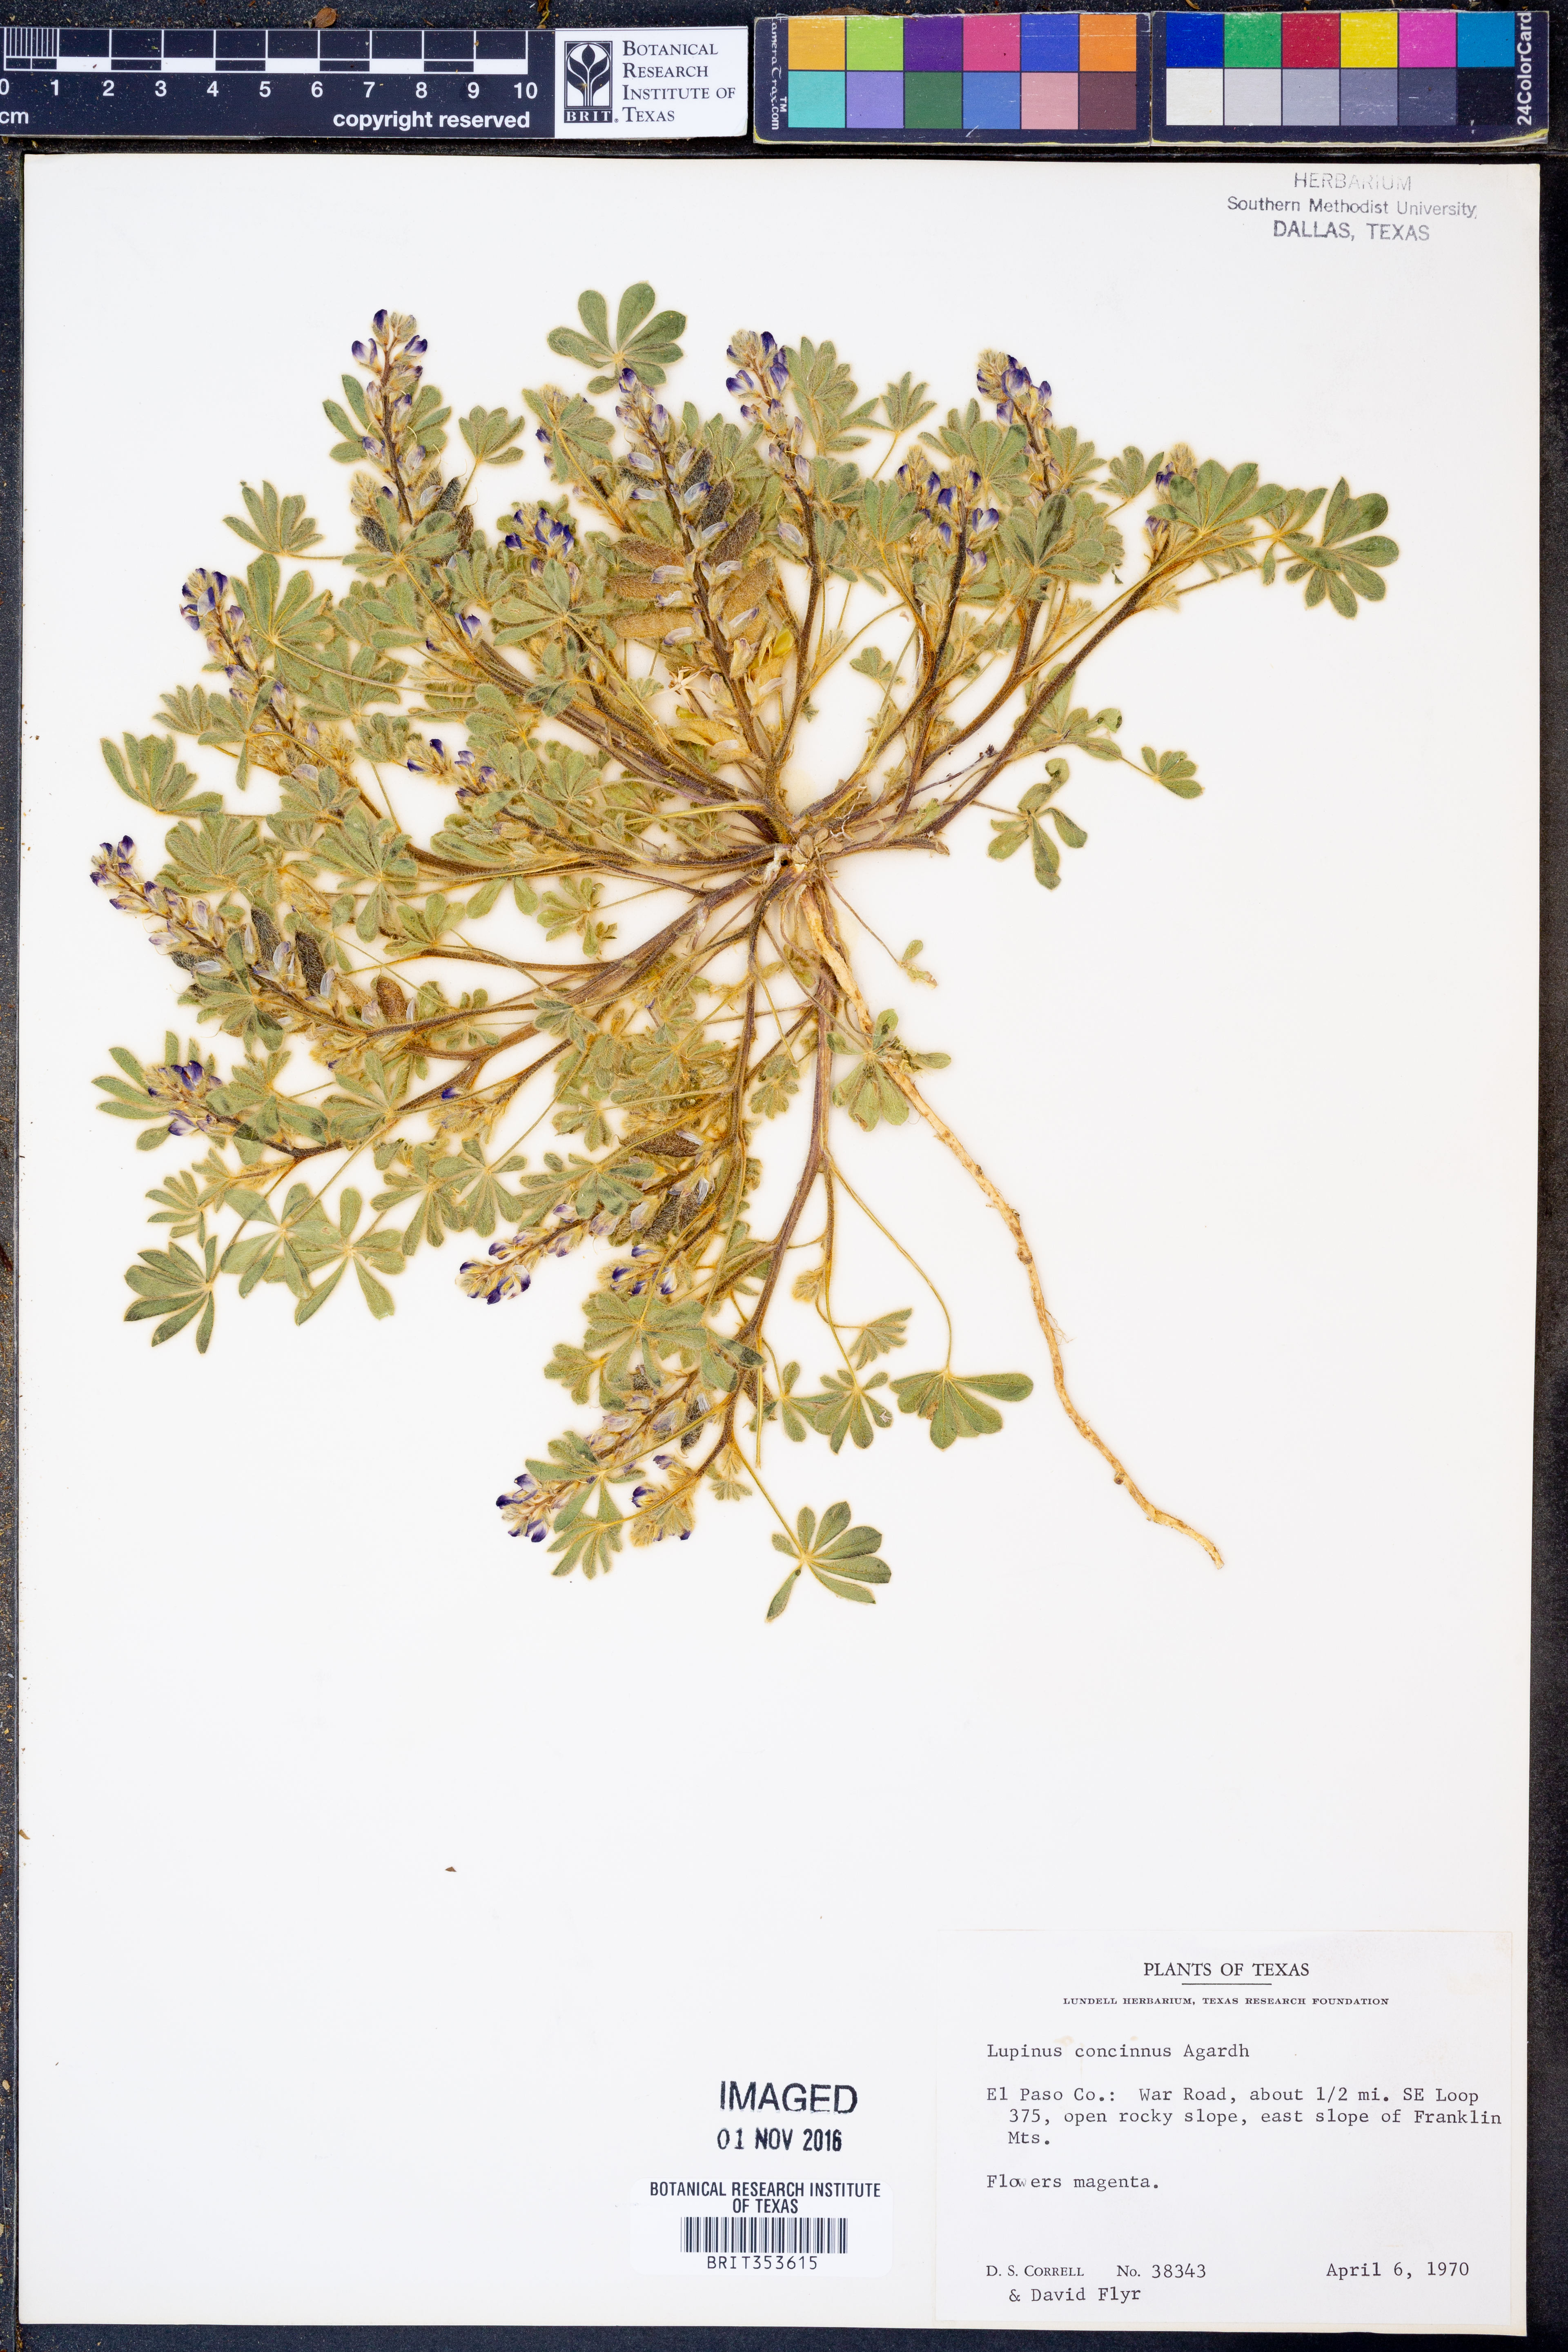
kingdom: Plantae
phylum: Tracheophyta
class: Magnoliopsida
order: Fabales
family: Fabaceae
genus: Lupinus
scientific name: Lupinus concinnus
